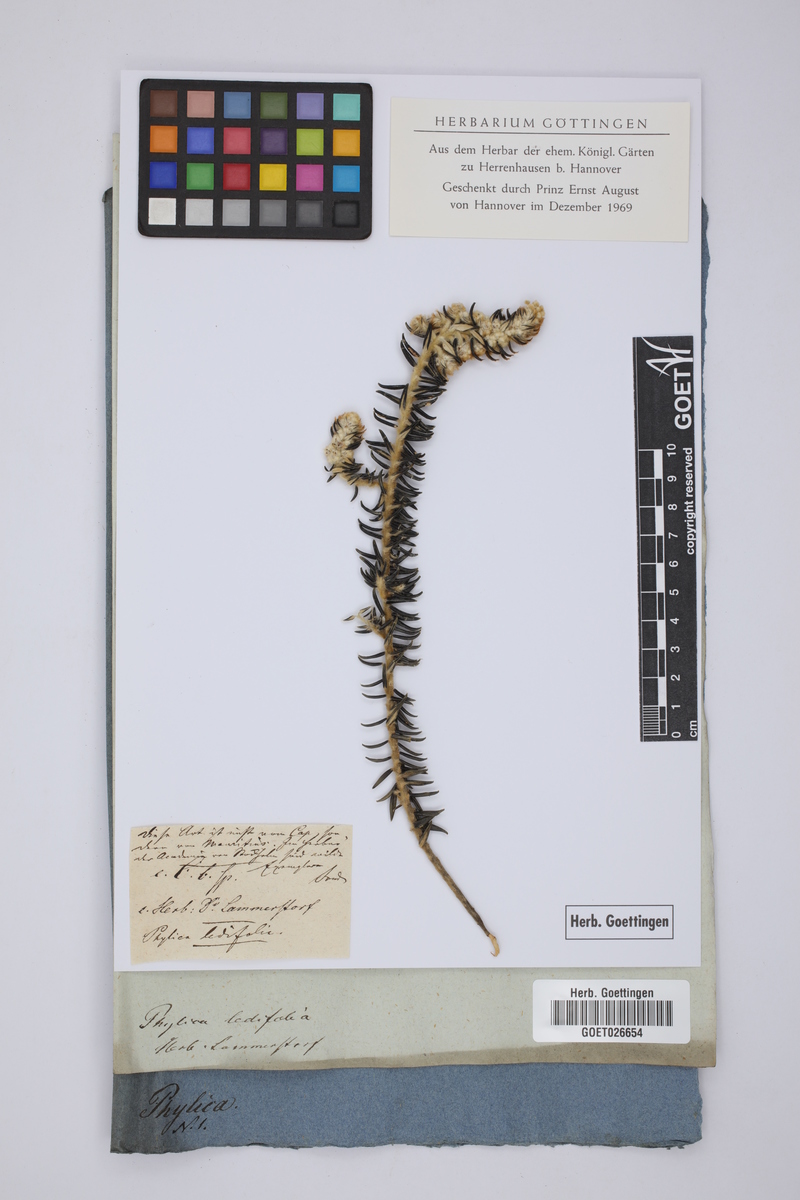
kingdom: Plantae
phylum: Tracheophyta
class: Magnoliopsida
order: Rosales
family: Rhamnaceae
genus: Phylica
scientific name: Phylica ledifolia
